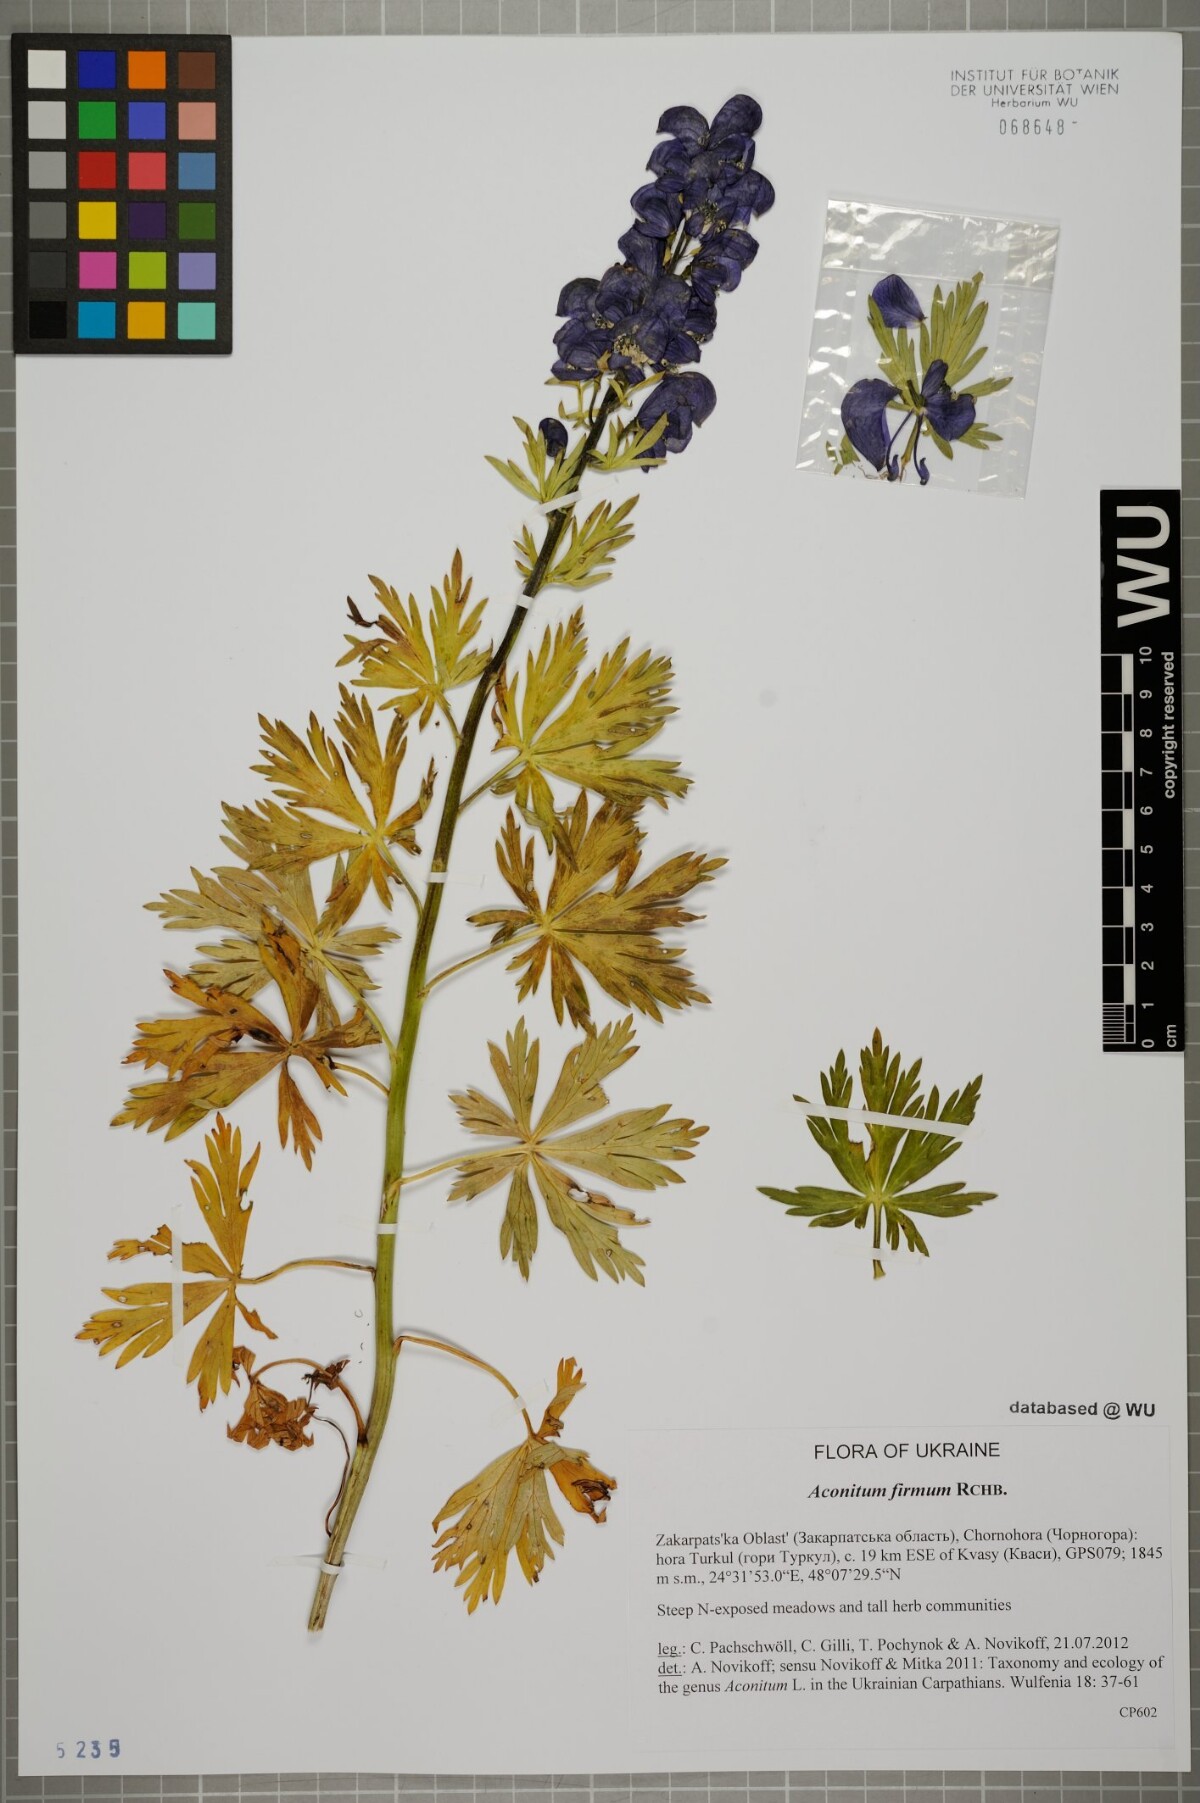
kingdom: Plantae
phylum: Tracheophyta
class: Magnoliopsida
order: Ranunculales
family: Ranunculaceae
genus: Aconitum
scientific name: Aconitum firmum
